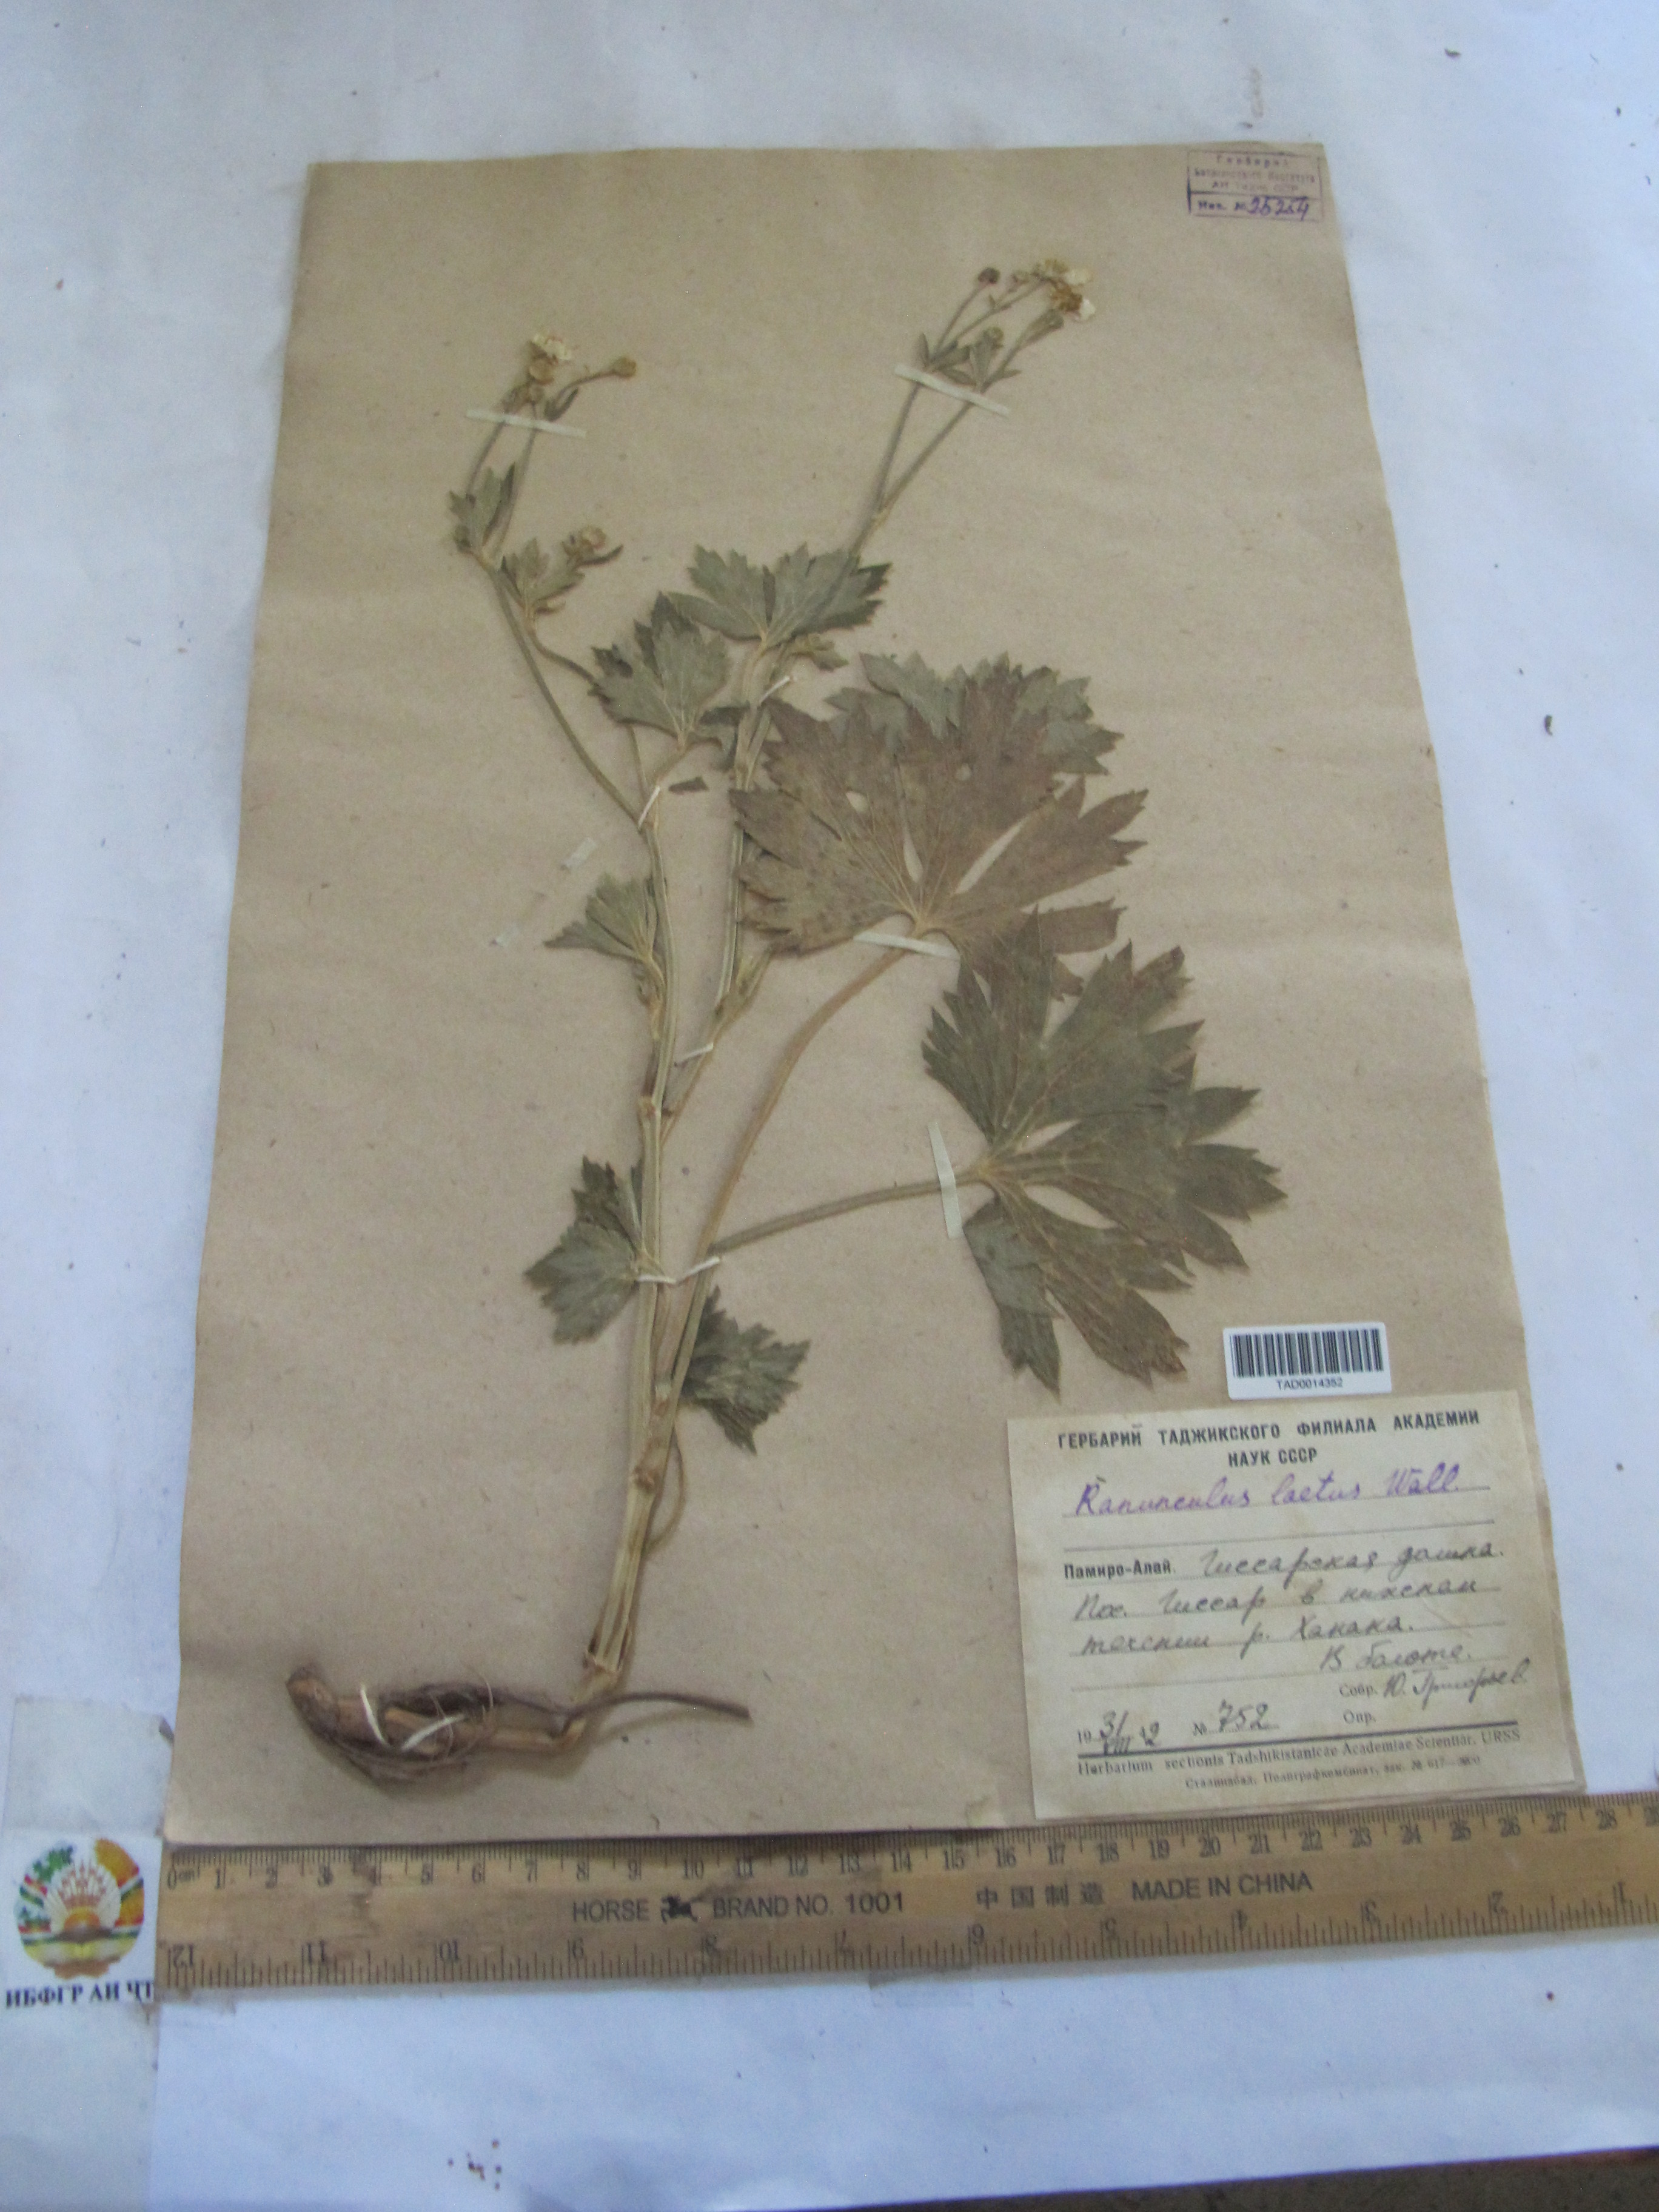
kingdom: Plantae
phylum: Tracheophyta
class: Magnoliopsida
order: Ranunculales
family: Ranunculaceae
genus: Ranunculus
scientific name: Ranunculus distans
